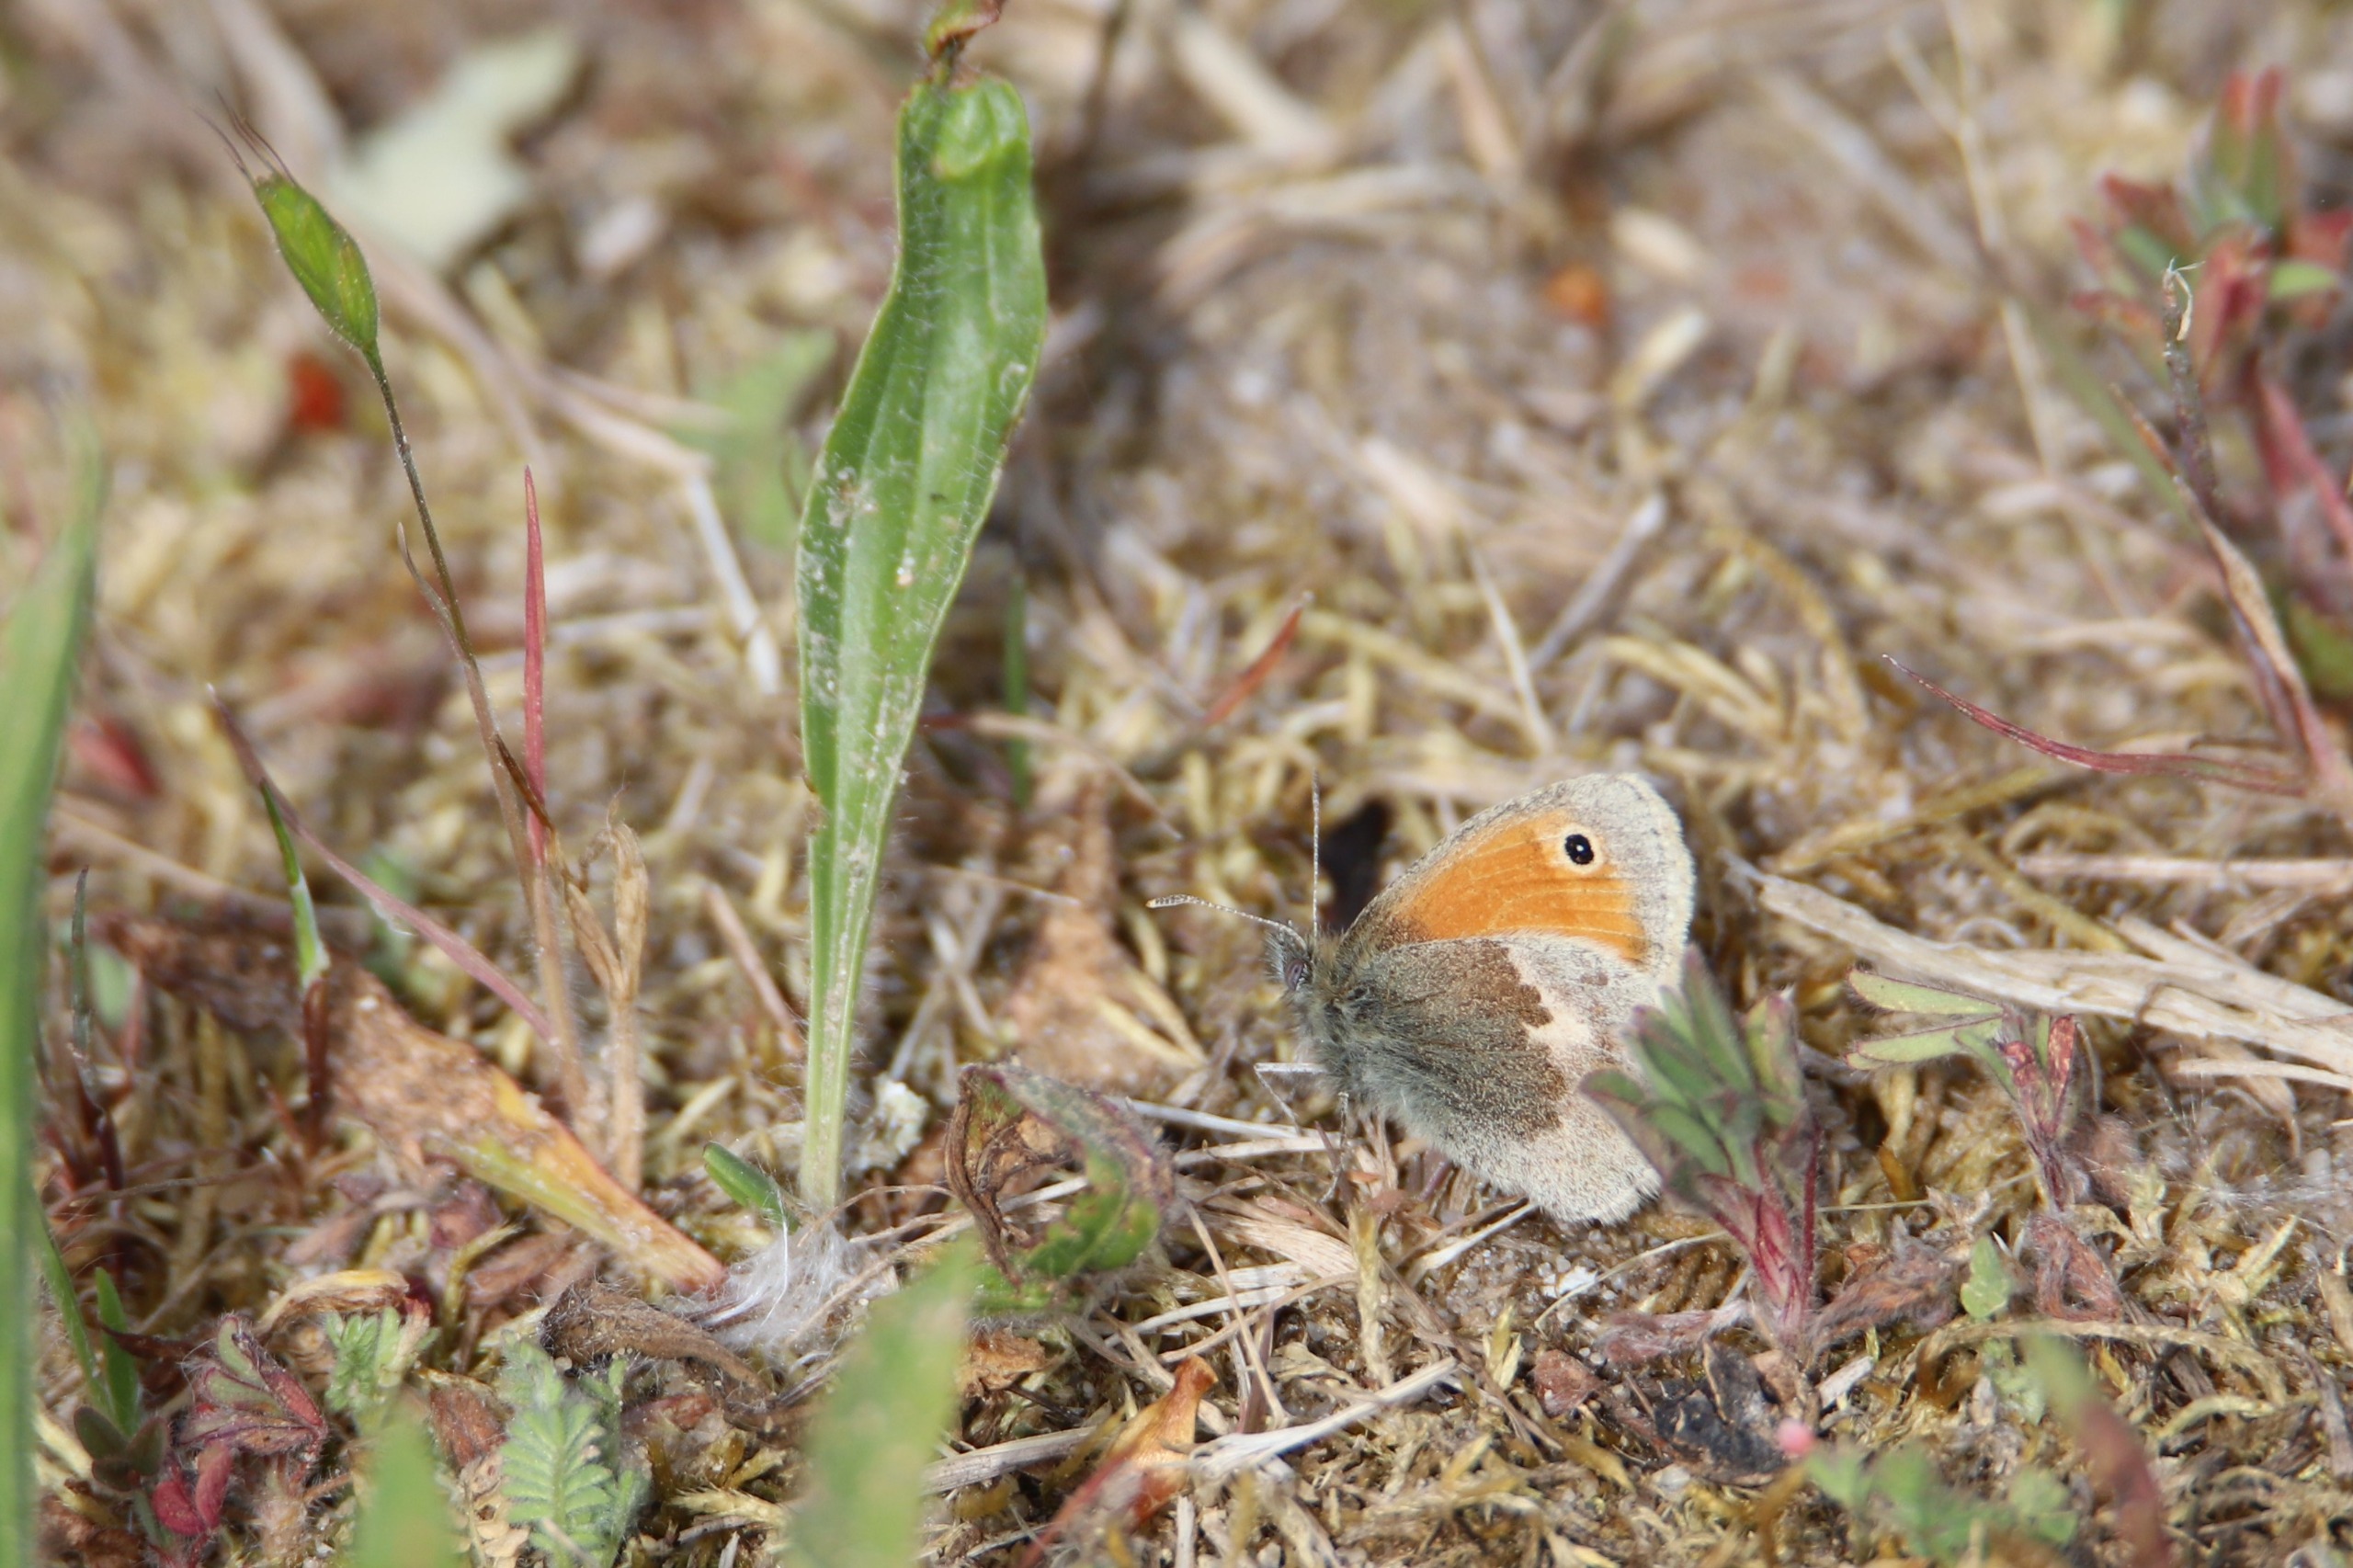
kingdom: Animalia
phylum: Arthropoda
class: Insecta
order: Lepidoptera
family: Nymphalidae
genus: Coenonympha
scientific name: Coenonympha pamphilus
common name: Okkergul randøje
